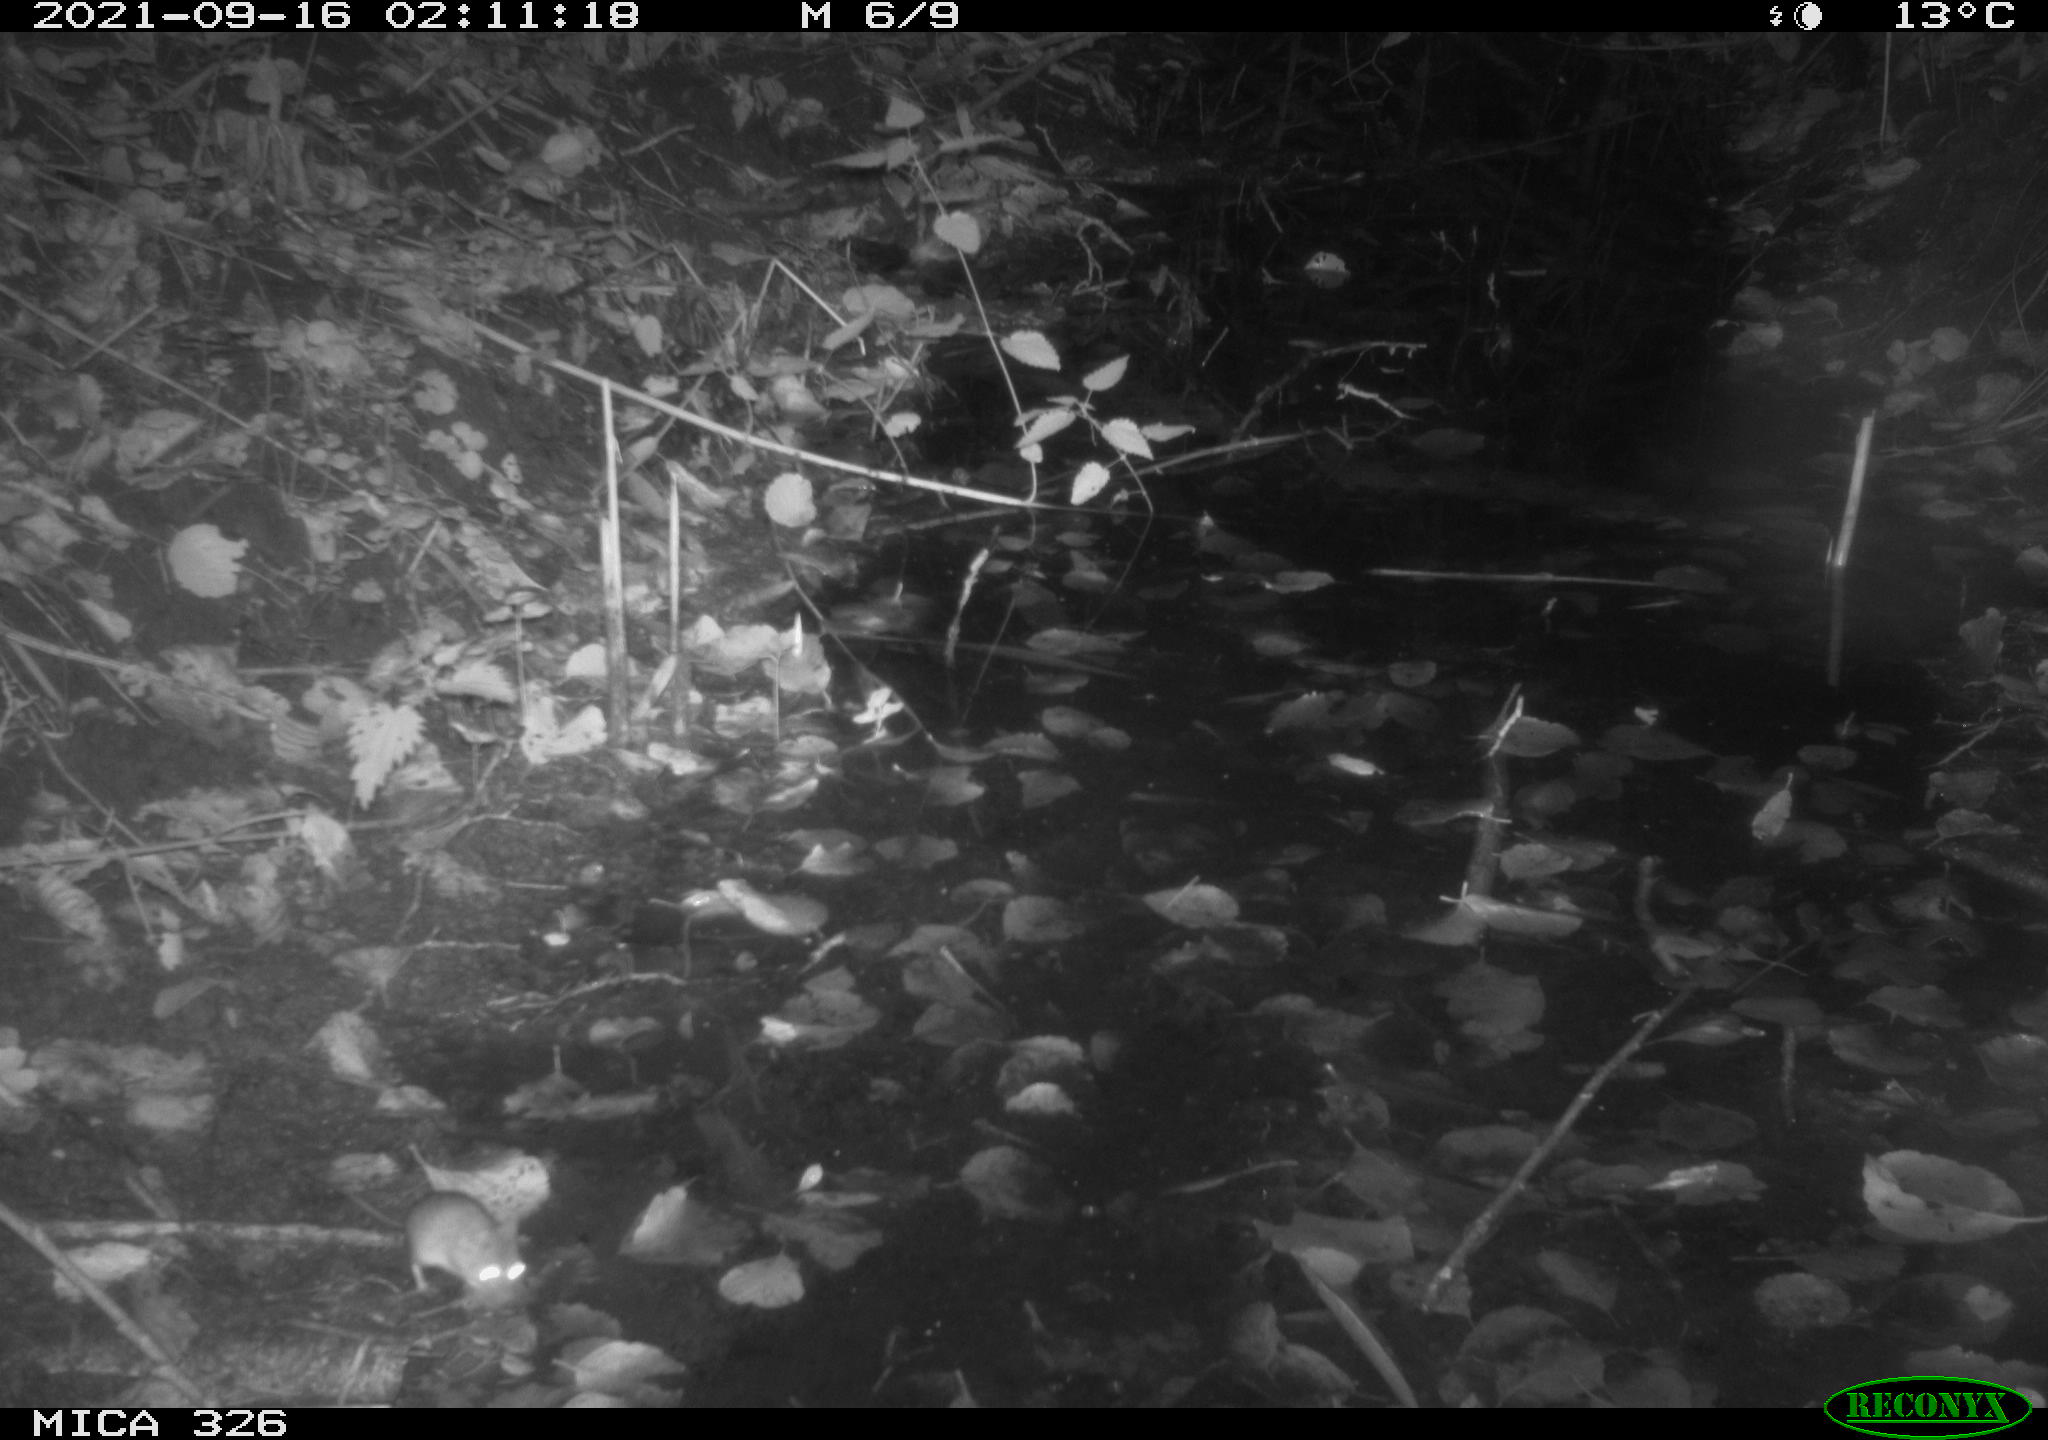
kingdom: Animalia
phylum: Chordata
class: Mammalia
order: Rodentia
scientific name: Rodentia
